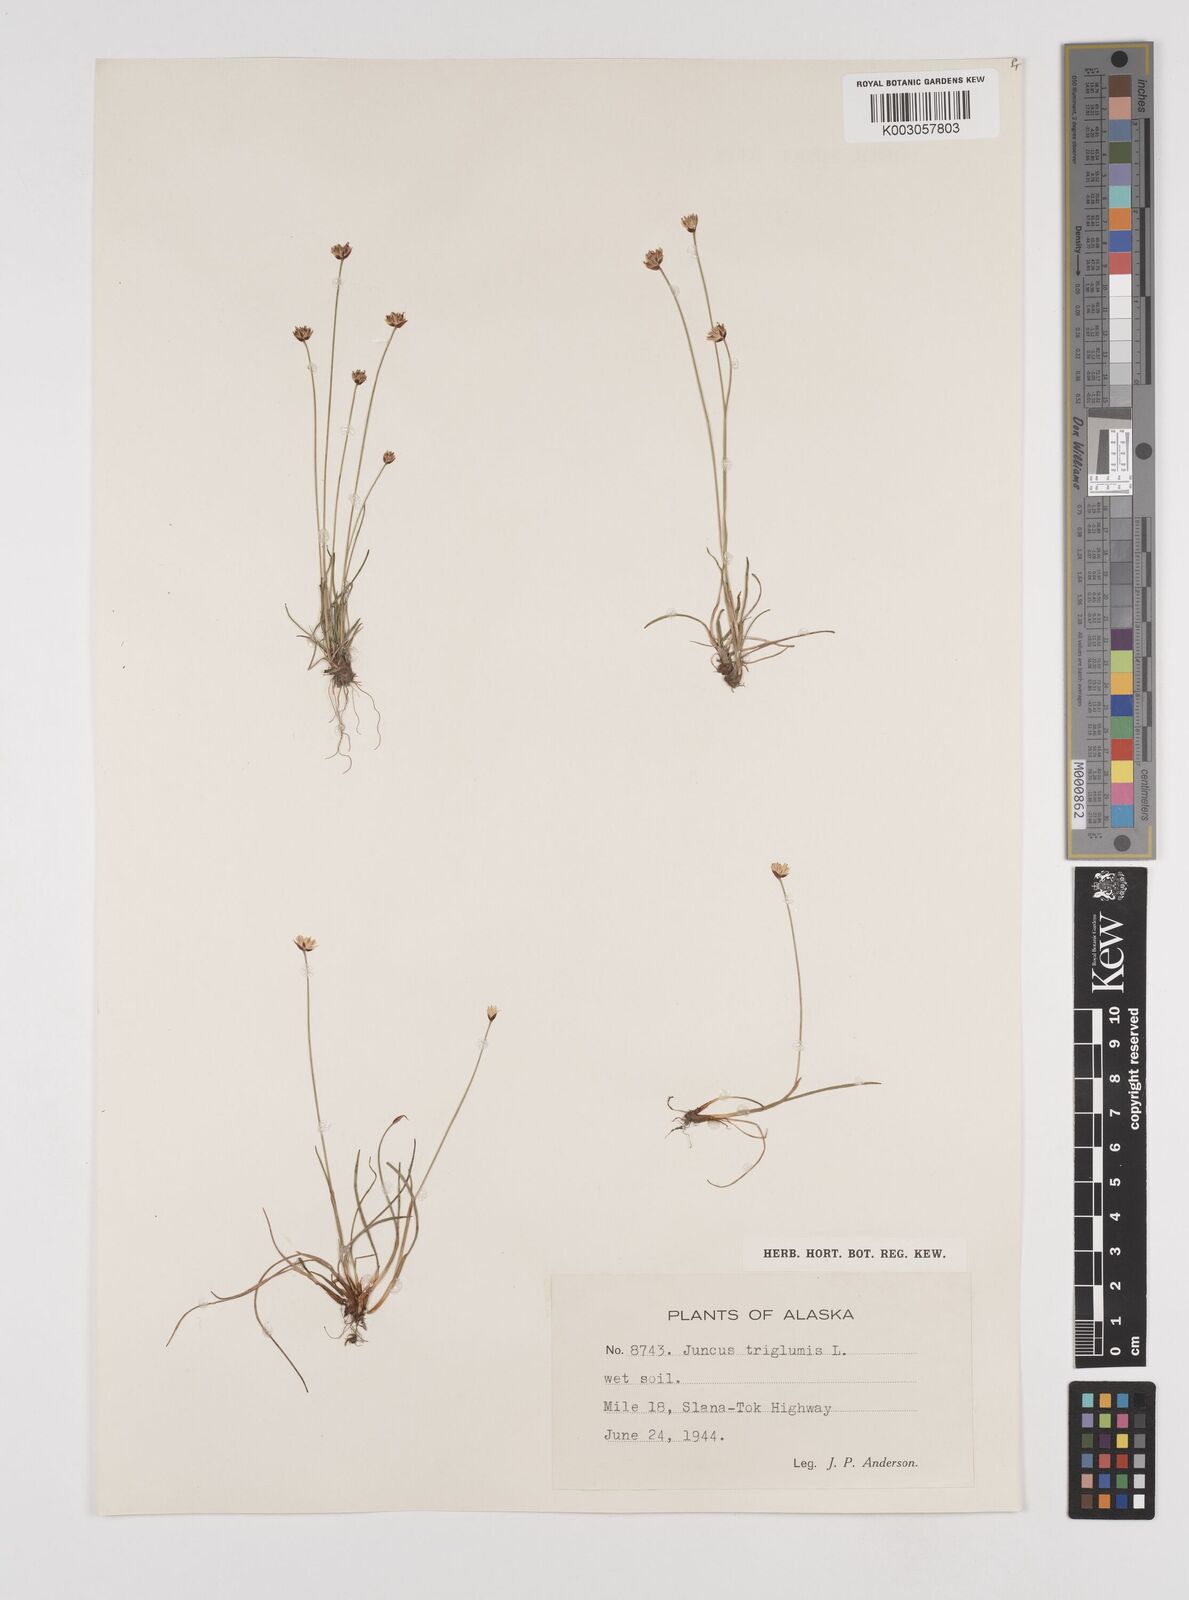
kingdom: Plantae
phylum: Tracheophyta
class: Liliopsida
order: Poales
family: Juncaceae
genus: Juncus
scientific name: Juncus triglumis
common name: Three-flowered rush
